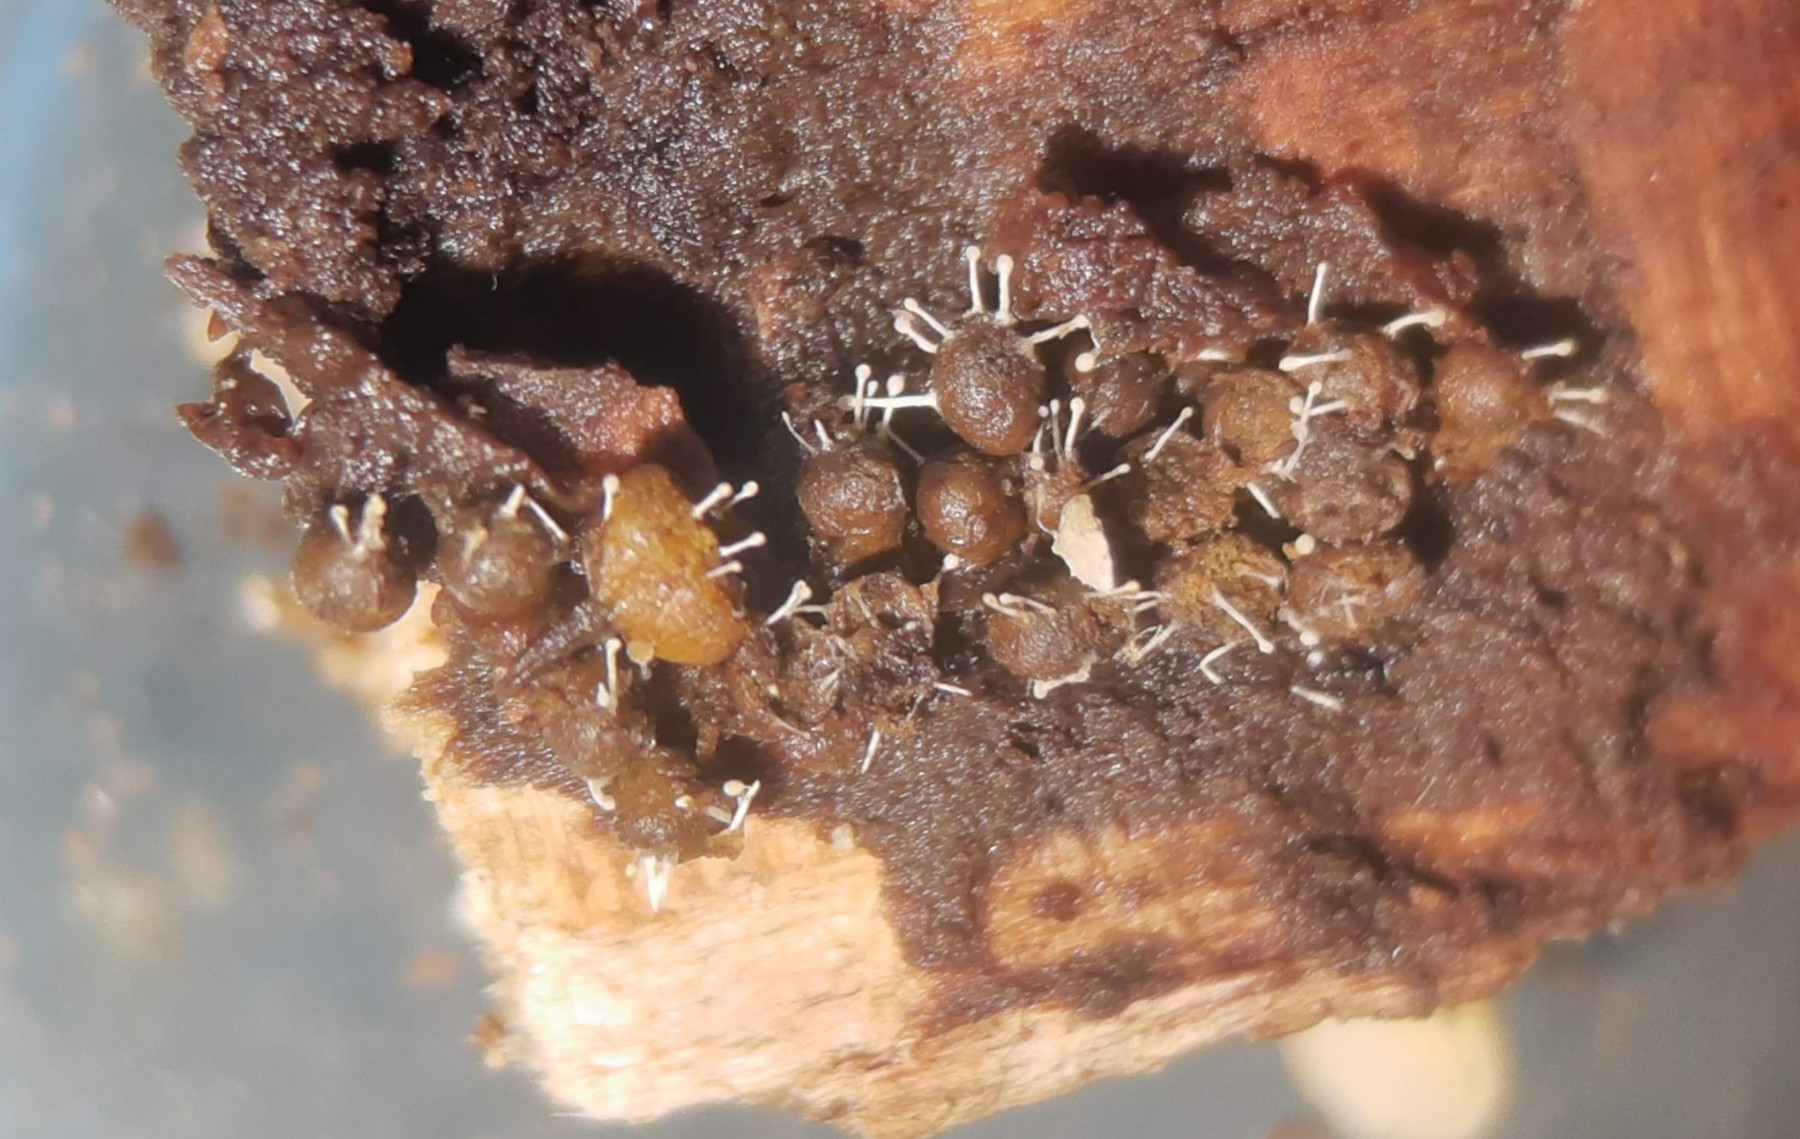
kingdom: Fungi
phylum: Ascomycota
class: Sordariomycetes
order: Hypocreales
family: Ophiocordycipitaceae
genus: Polycephalomyces
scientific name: Polycephalomyces tomentosus
